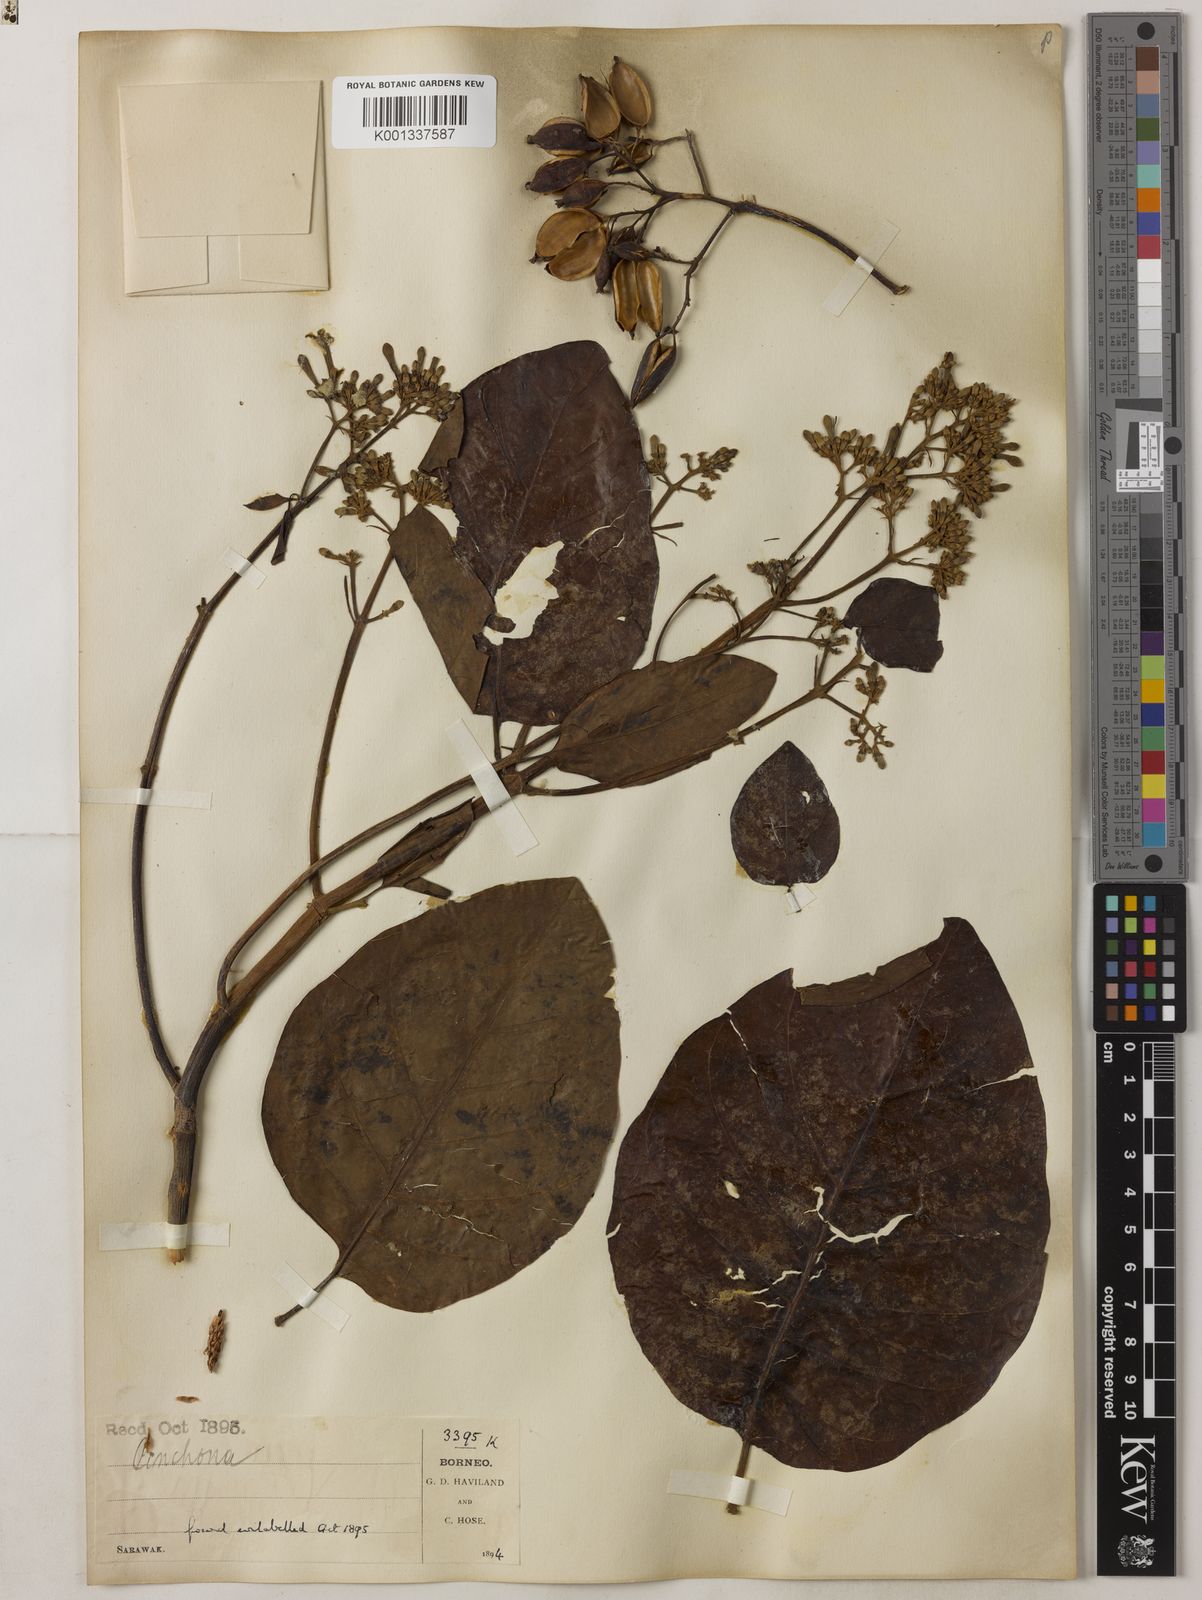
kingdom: Plantae
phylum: Tracheophyta
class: Magnoliopsida
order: Gentianales
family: Rubiaceae
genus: Cinchona
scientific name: Cinchona pubescens
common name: Quinine
